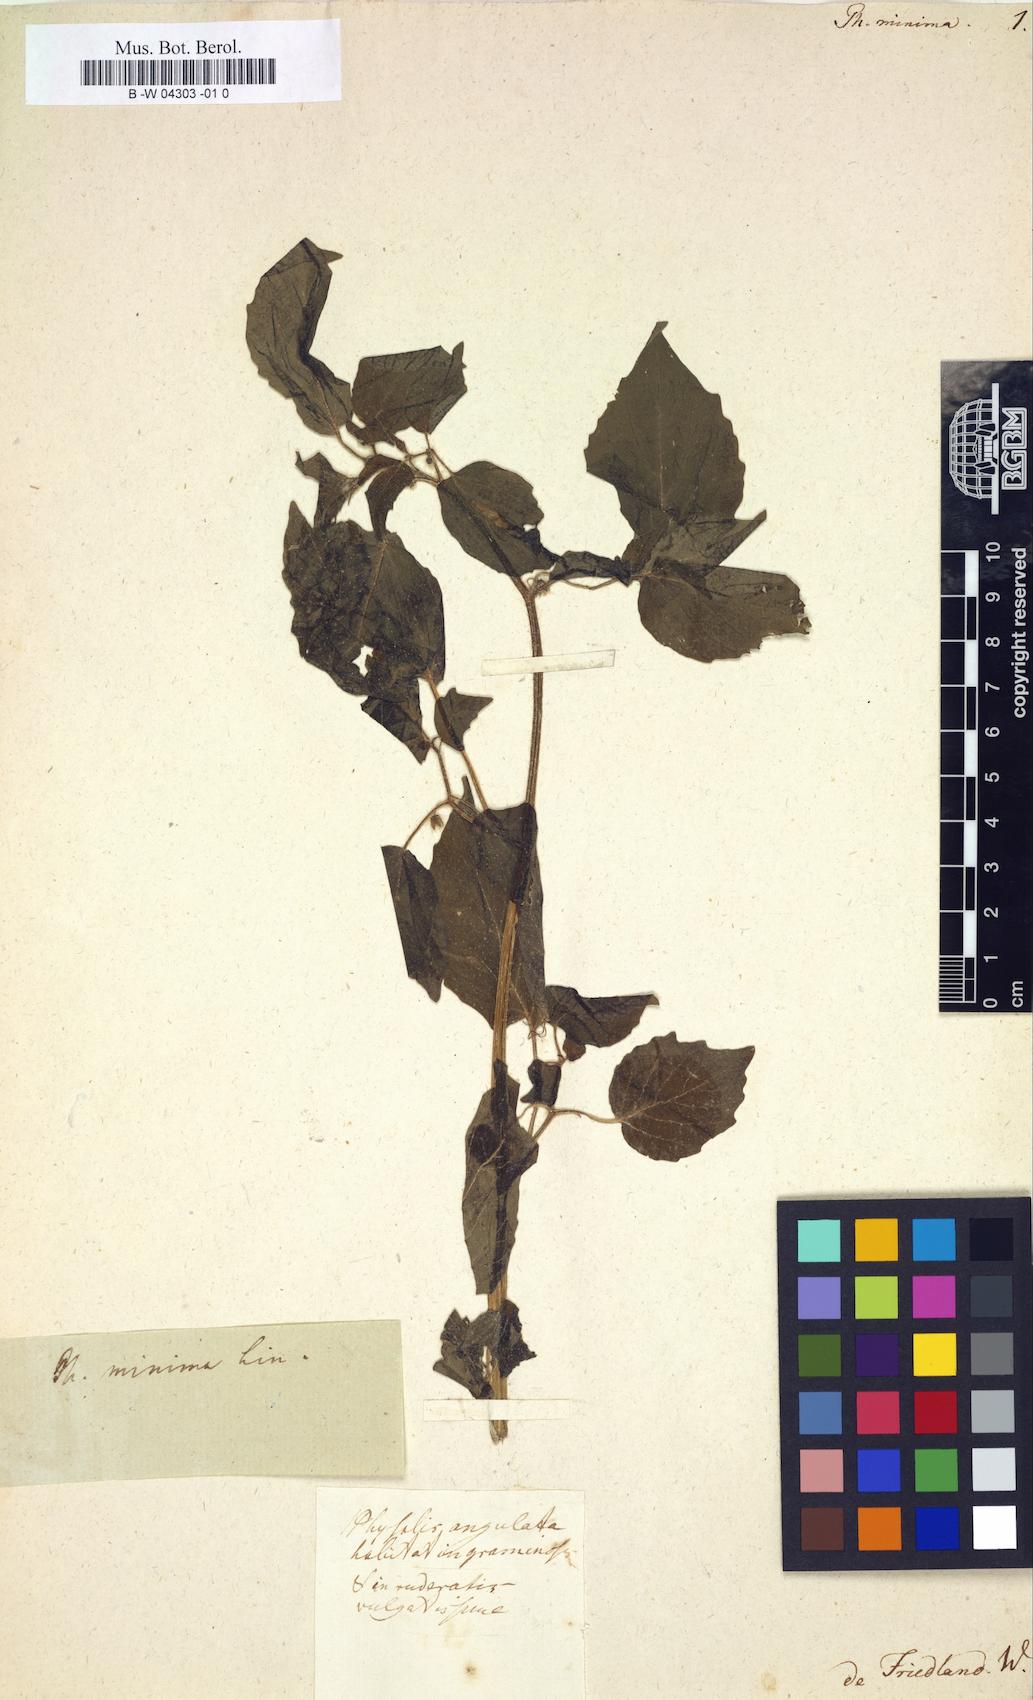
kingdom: Plantae
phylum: Tracheophyta
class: Magnoliopsida
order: Solanales
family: Solanaceae
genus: Physalis
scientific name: Physalis angulata
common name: Angular winter-cherry
